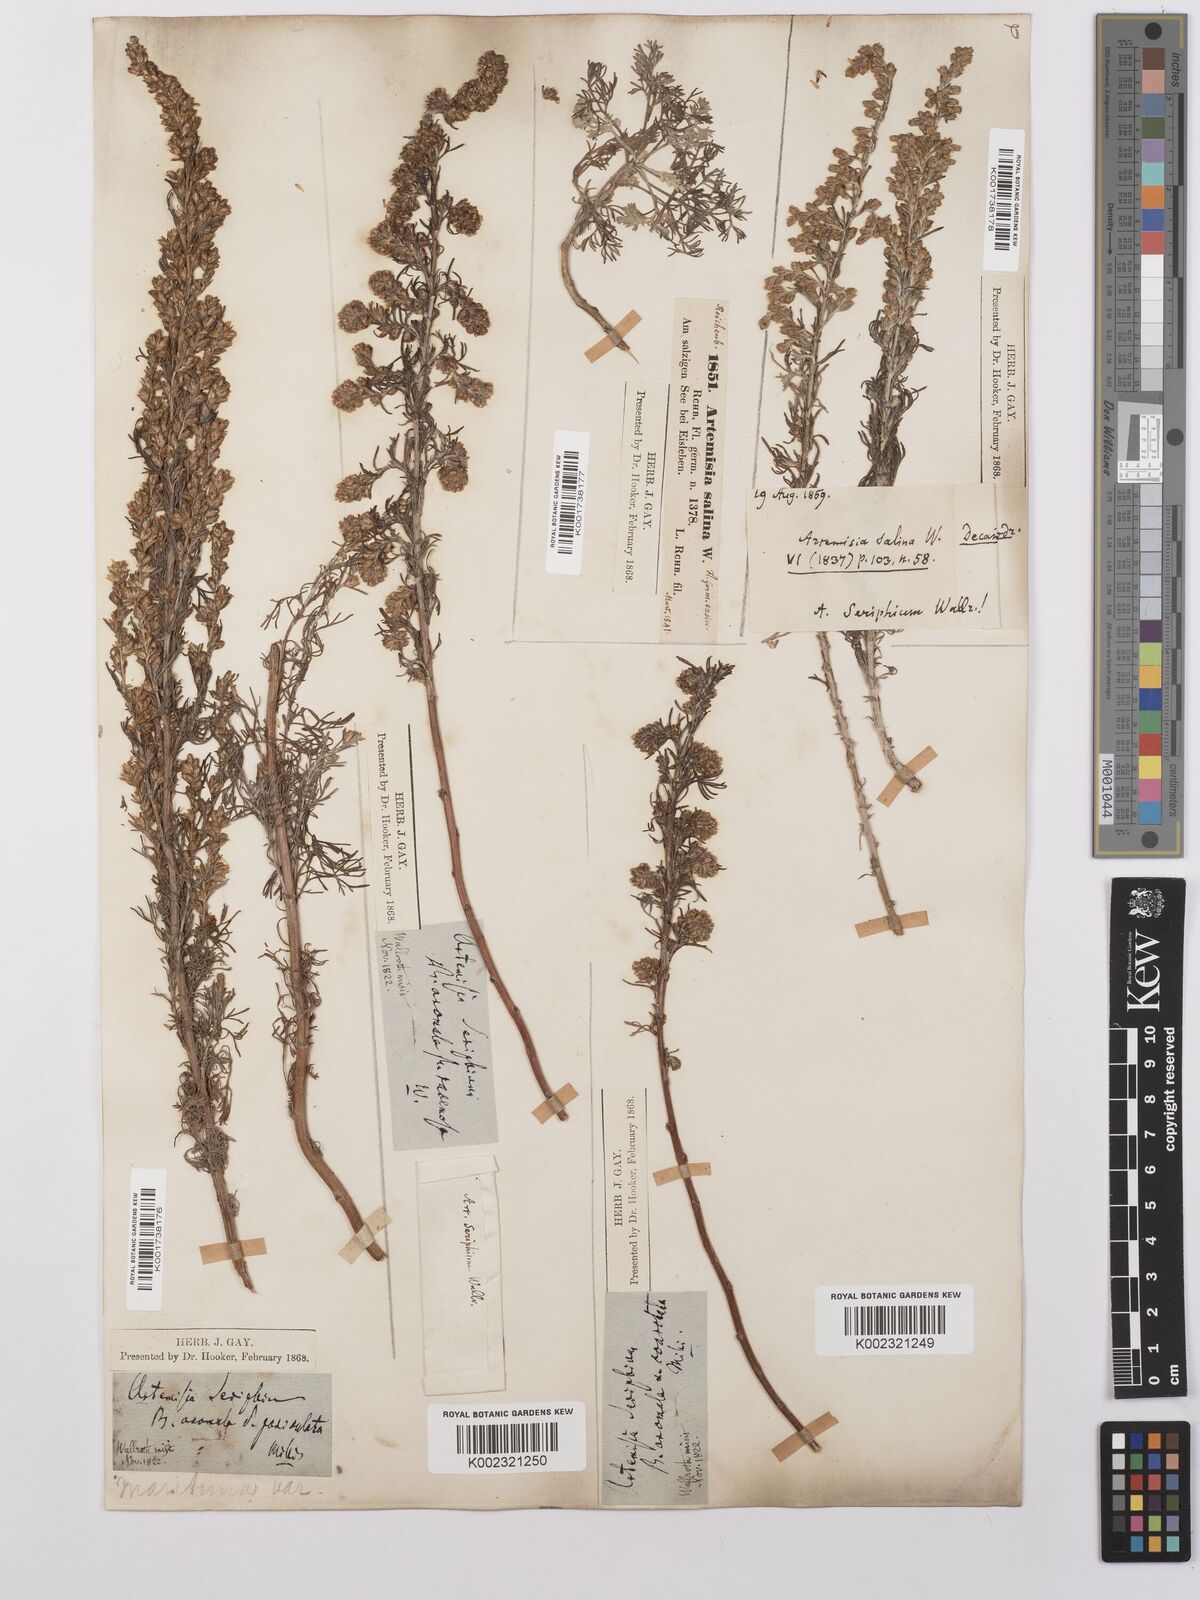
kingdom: Plantae
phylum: Tracheophyta
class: Magnoliopsida
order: Asterales
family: Asteraceae
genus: Artemisia
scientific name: Artemisia maritima
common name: Wormseed
